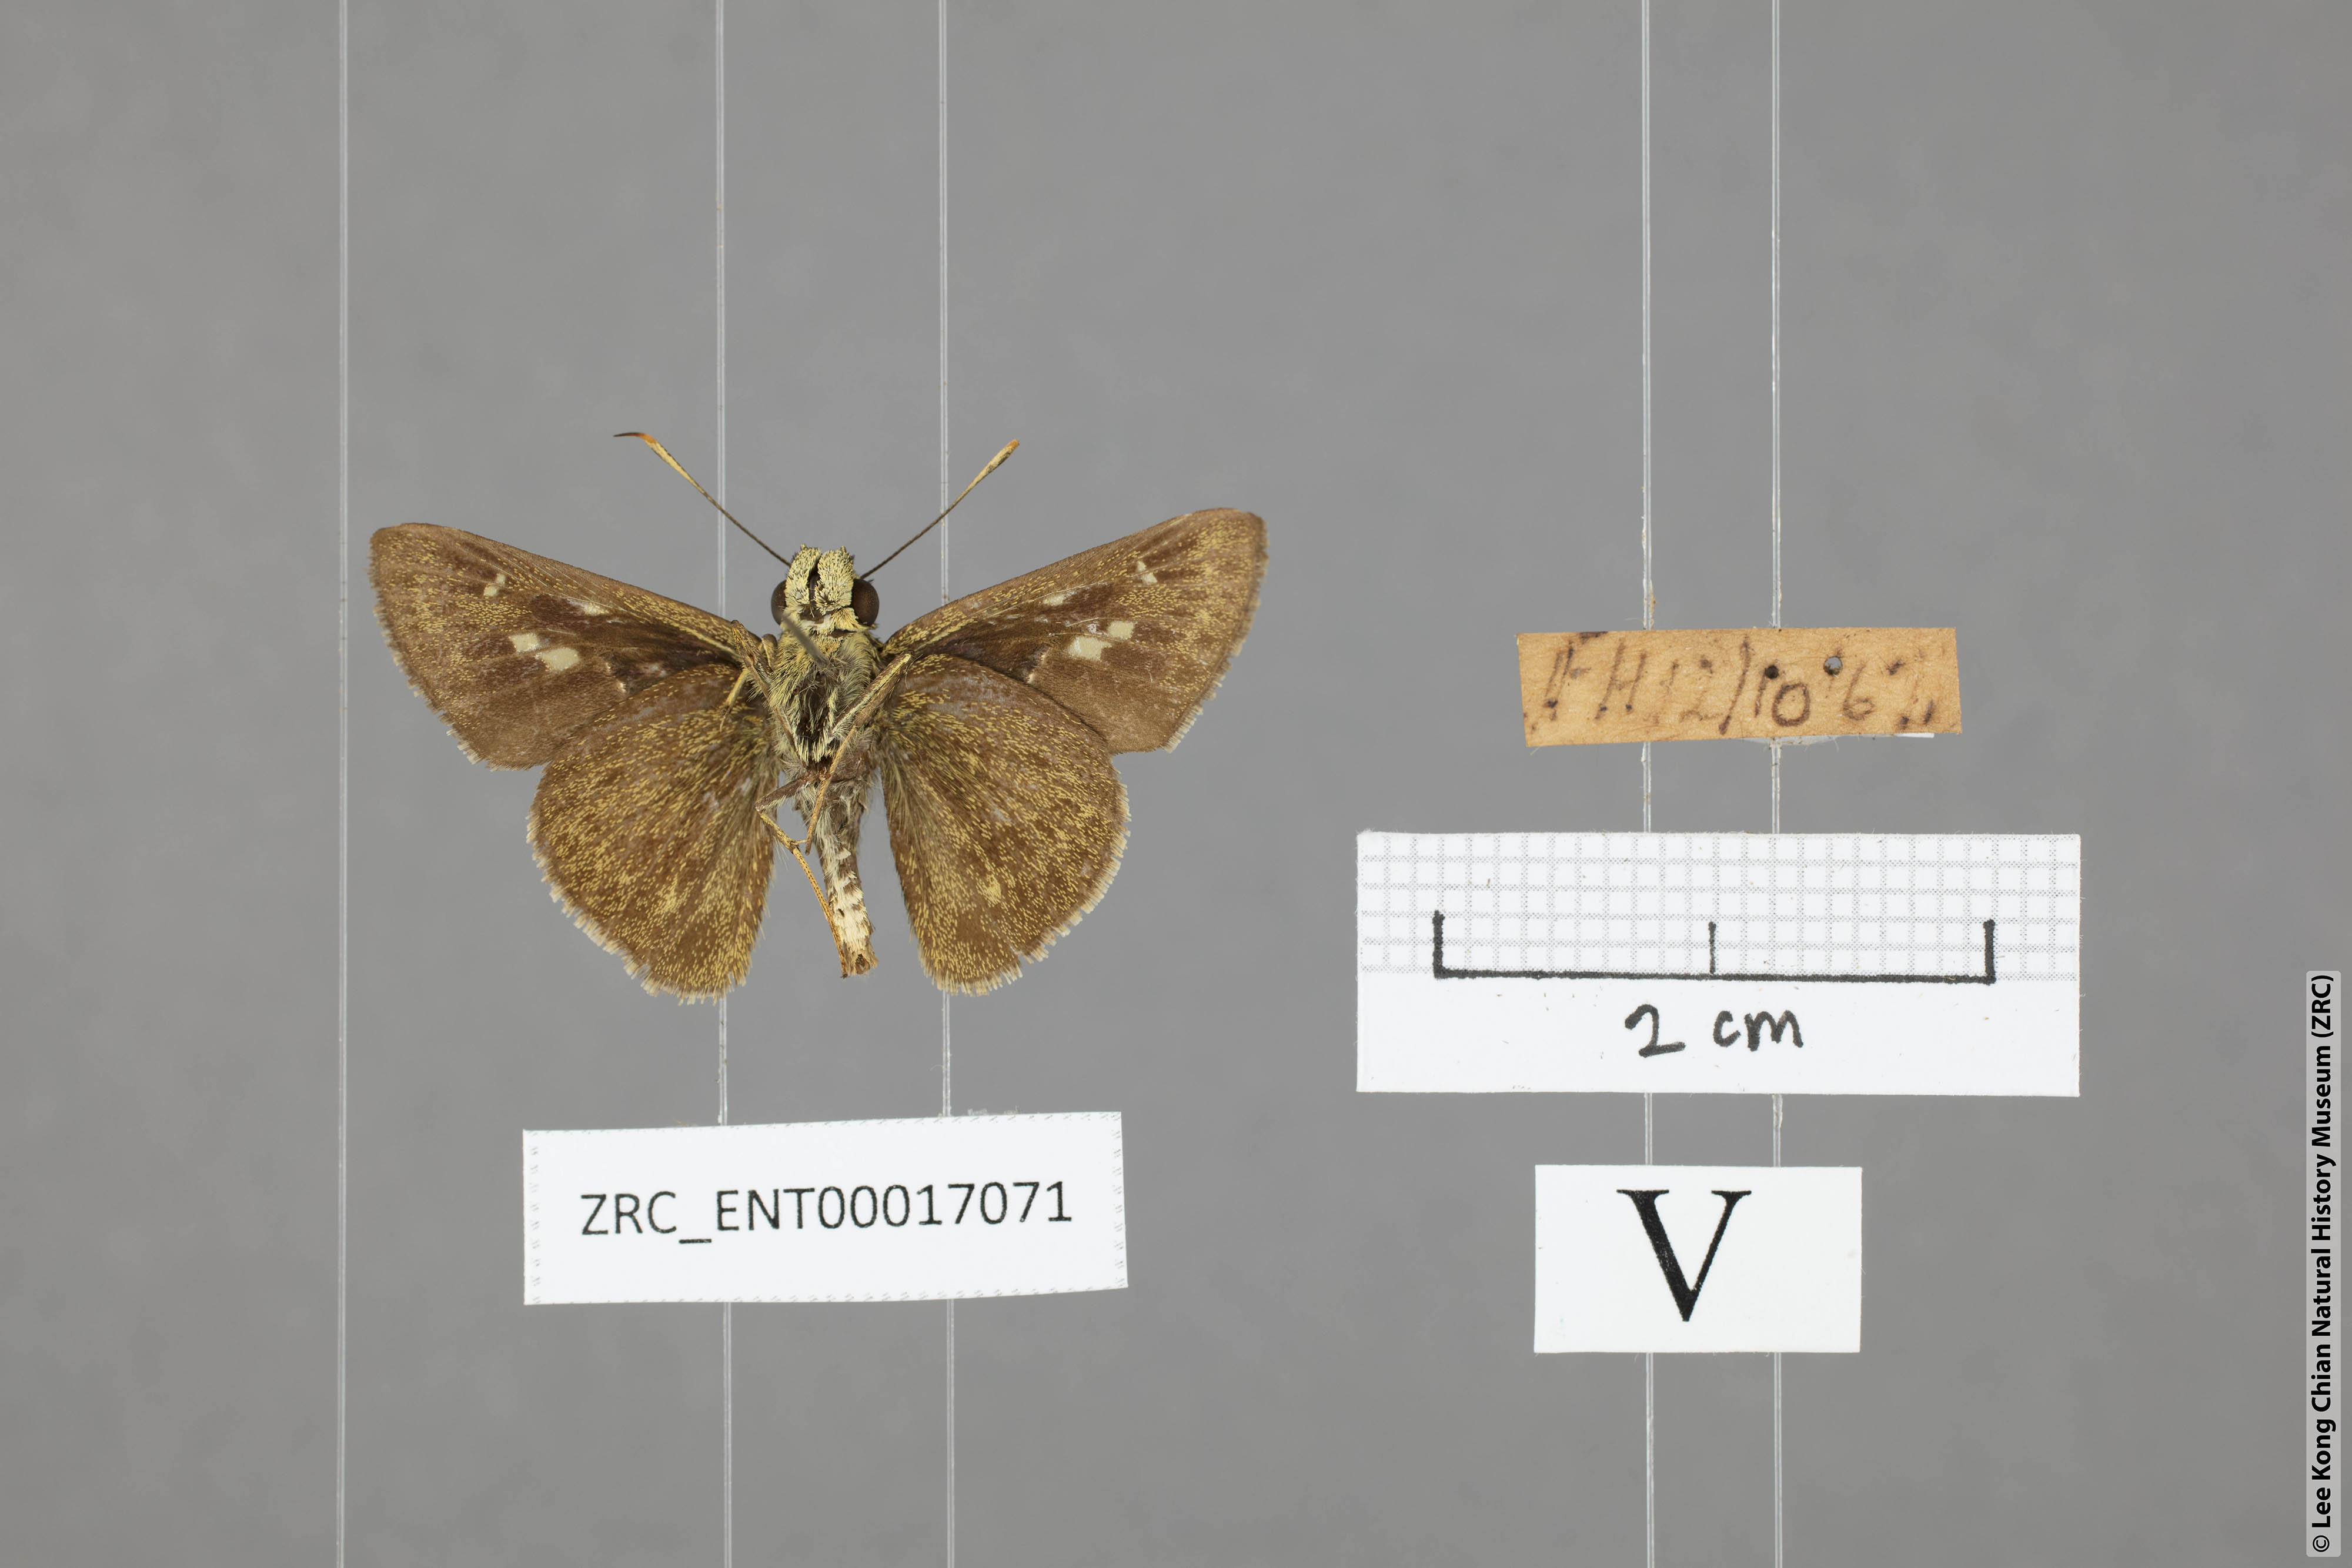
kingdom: Animalia
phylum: Arthropoda
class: Insecta
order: Lepidoptera
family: Hesperiidae
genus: Halpe
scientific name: Halpe sikkima
